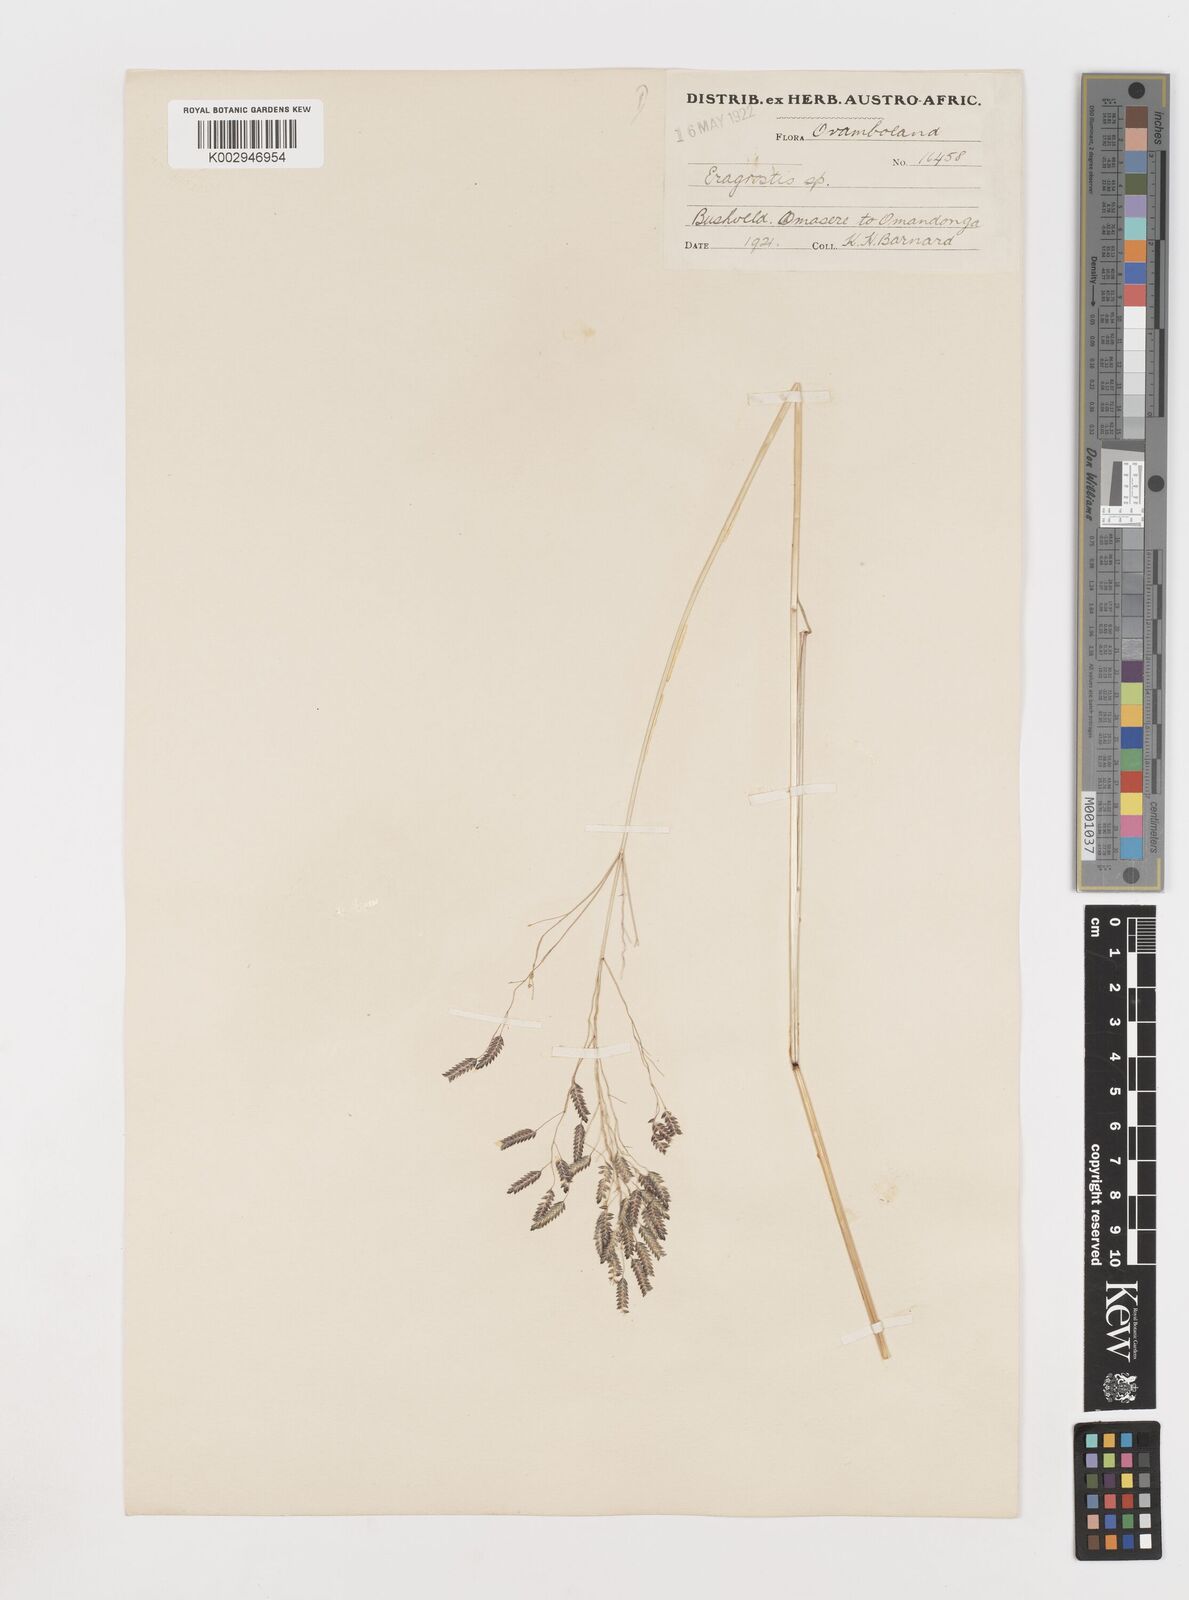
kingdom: Plantae
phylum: Tracheophyta
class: Liliopsida
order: Poales
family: Poaceae
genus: Eragrostis
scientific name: Eragrostis membranacea
